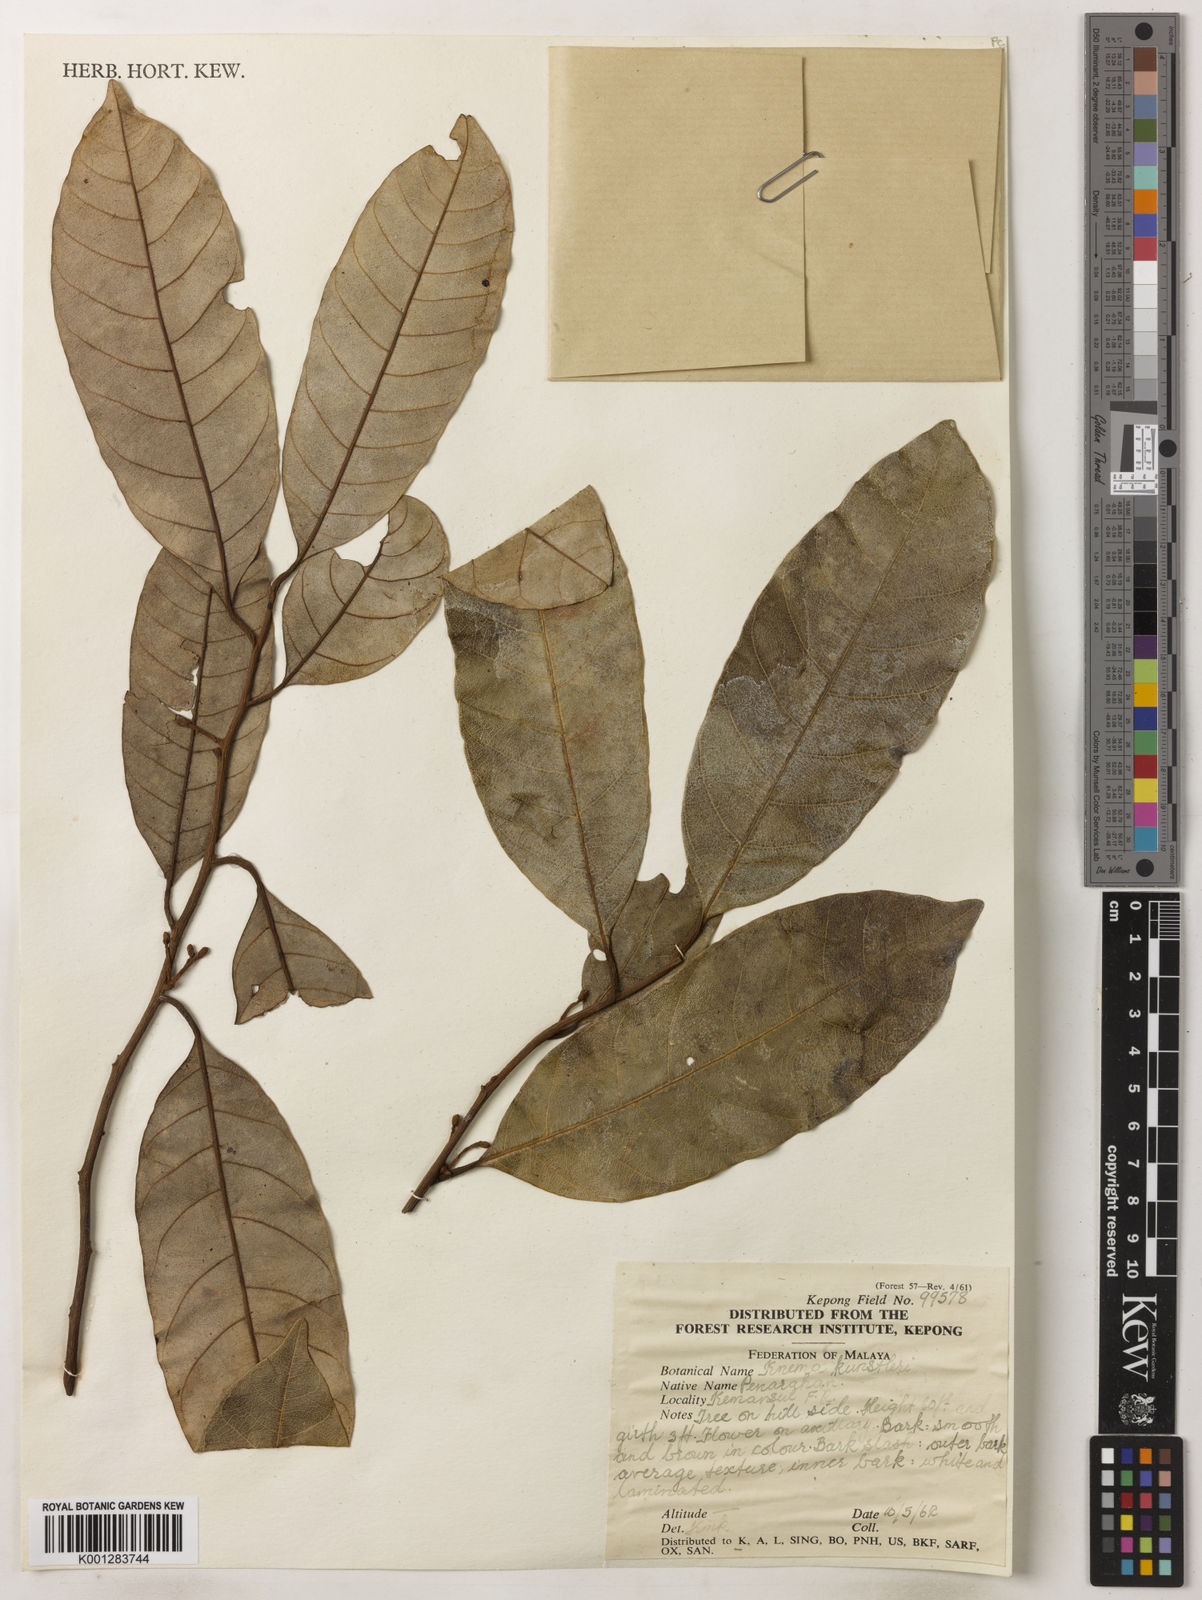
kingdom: Plantae
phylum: Tracheophyta
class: Magnoliopsida
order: Magnoliales
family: Myristicaceae
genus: Knema
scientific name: Knema kunstleri
